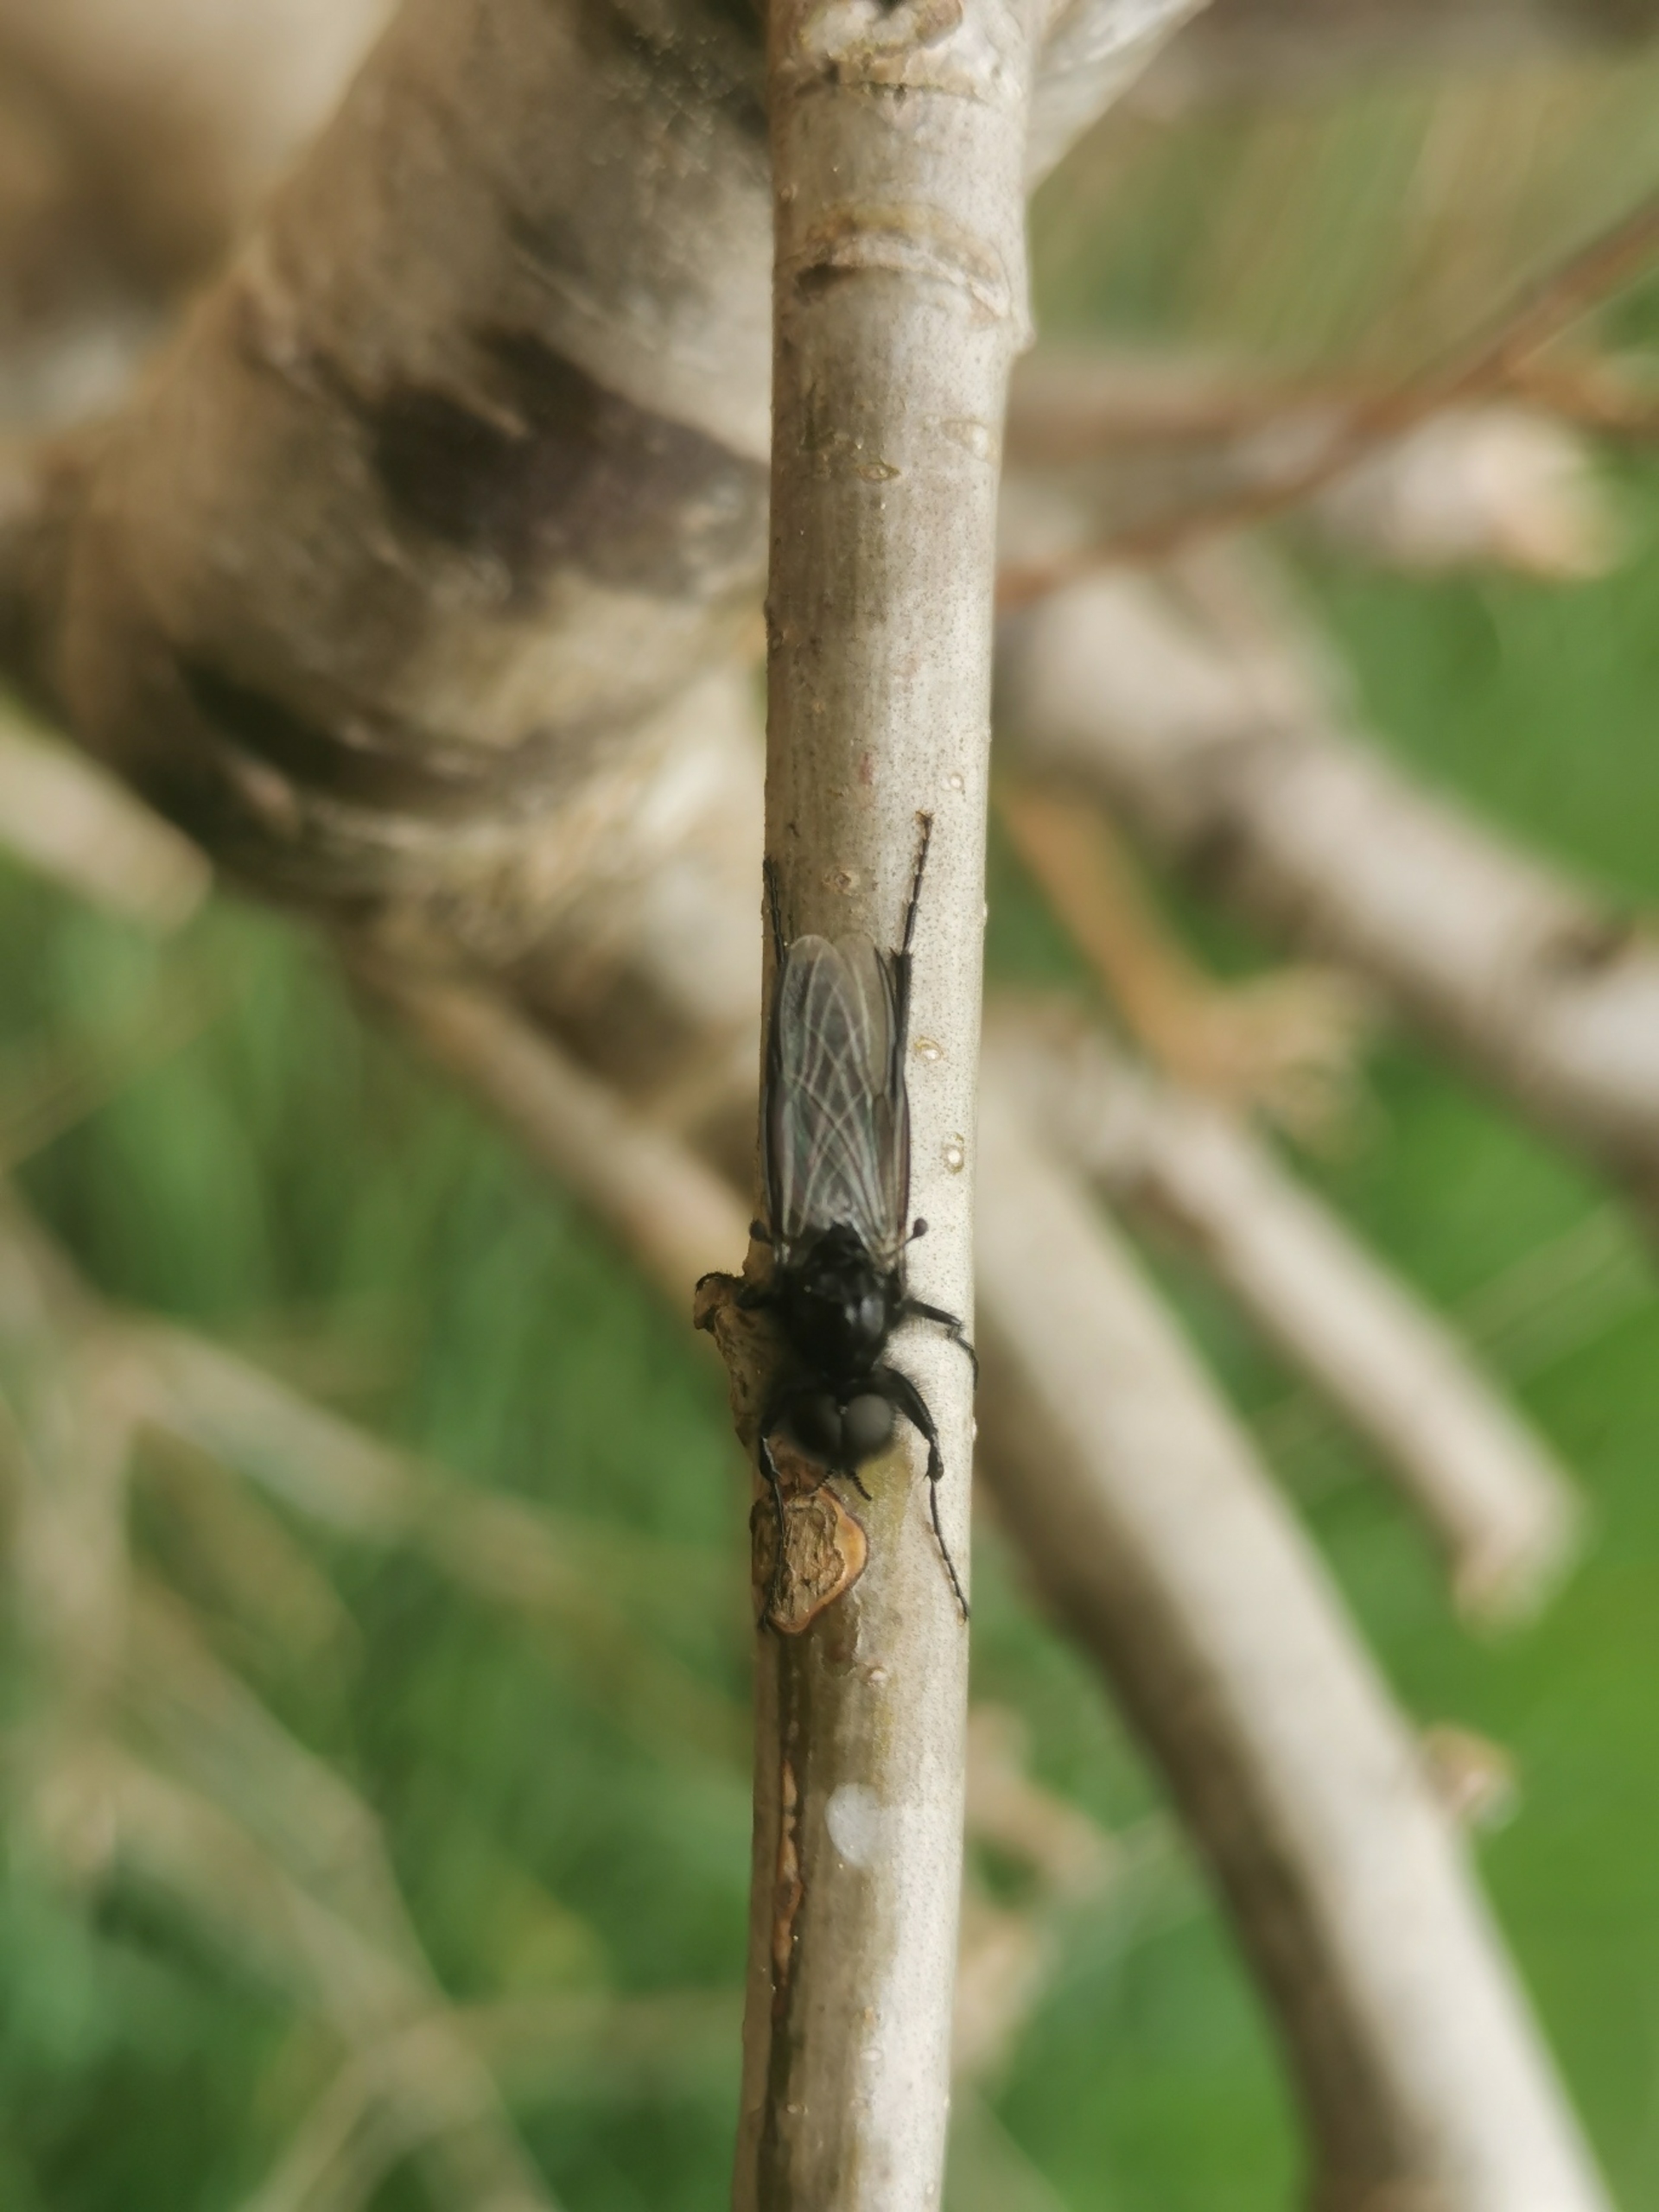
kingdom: Animalia
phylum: Arthropoda
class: Insecta
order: Diptera
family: Bibionidae
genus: Bibio
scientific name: Bibio marci
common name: Skovhårmyg
